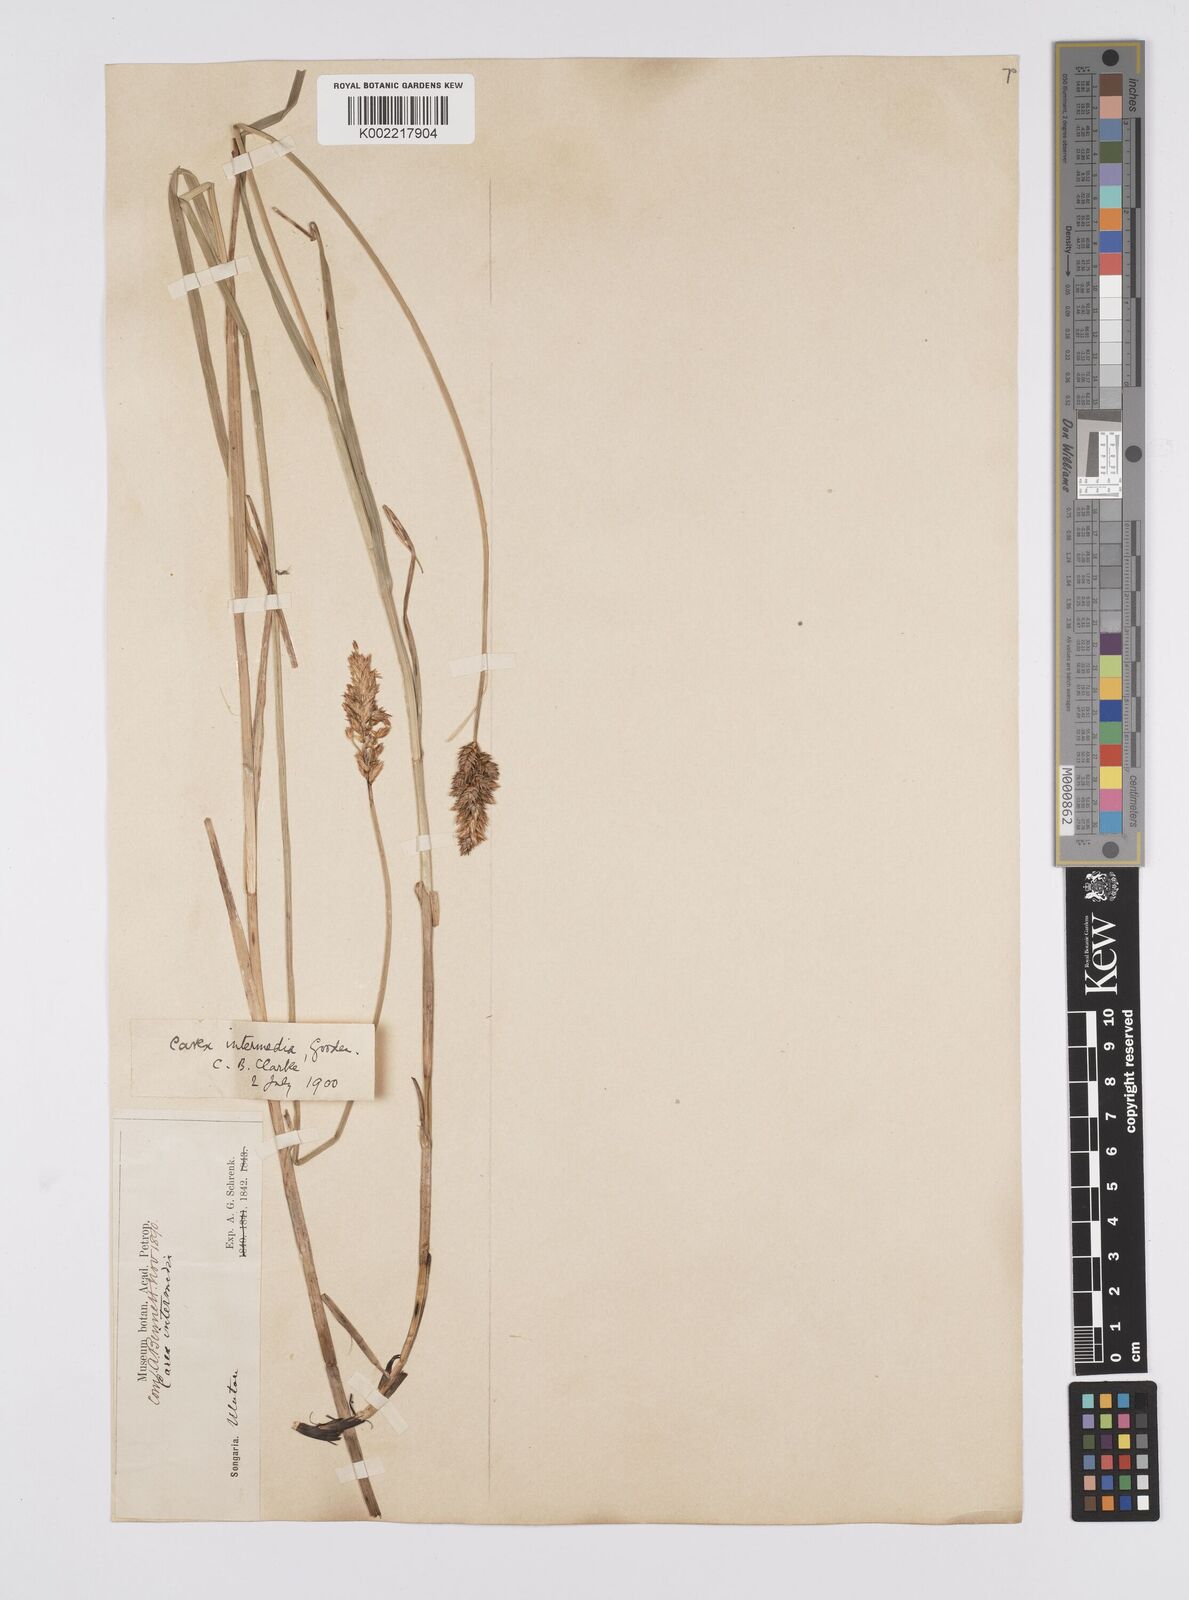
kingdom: Plantae
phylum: Tracheophyta
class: Liliopsida
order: Poales
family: Cyperaceae
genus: Carex
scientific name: Carex disticha
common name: Brown sedge
